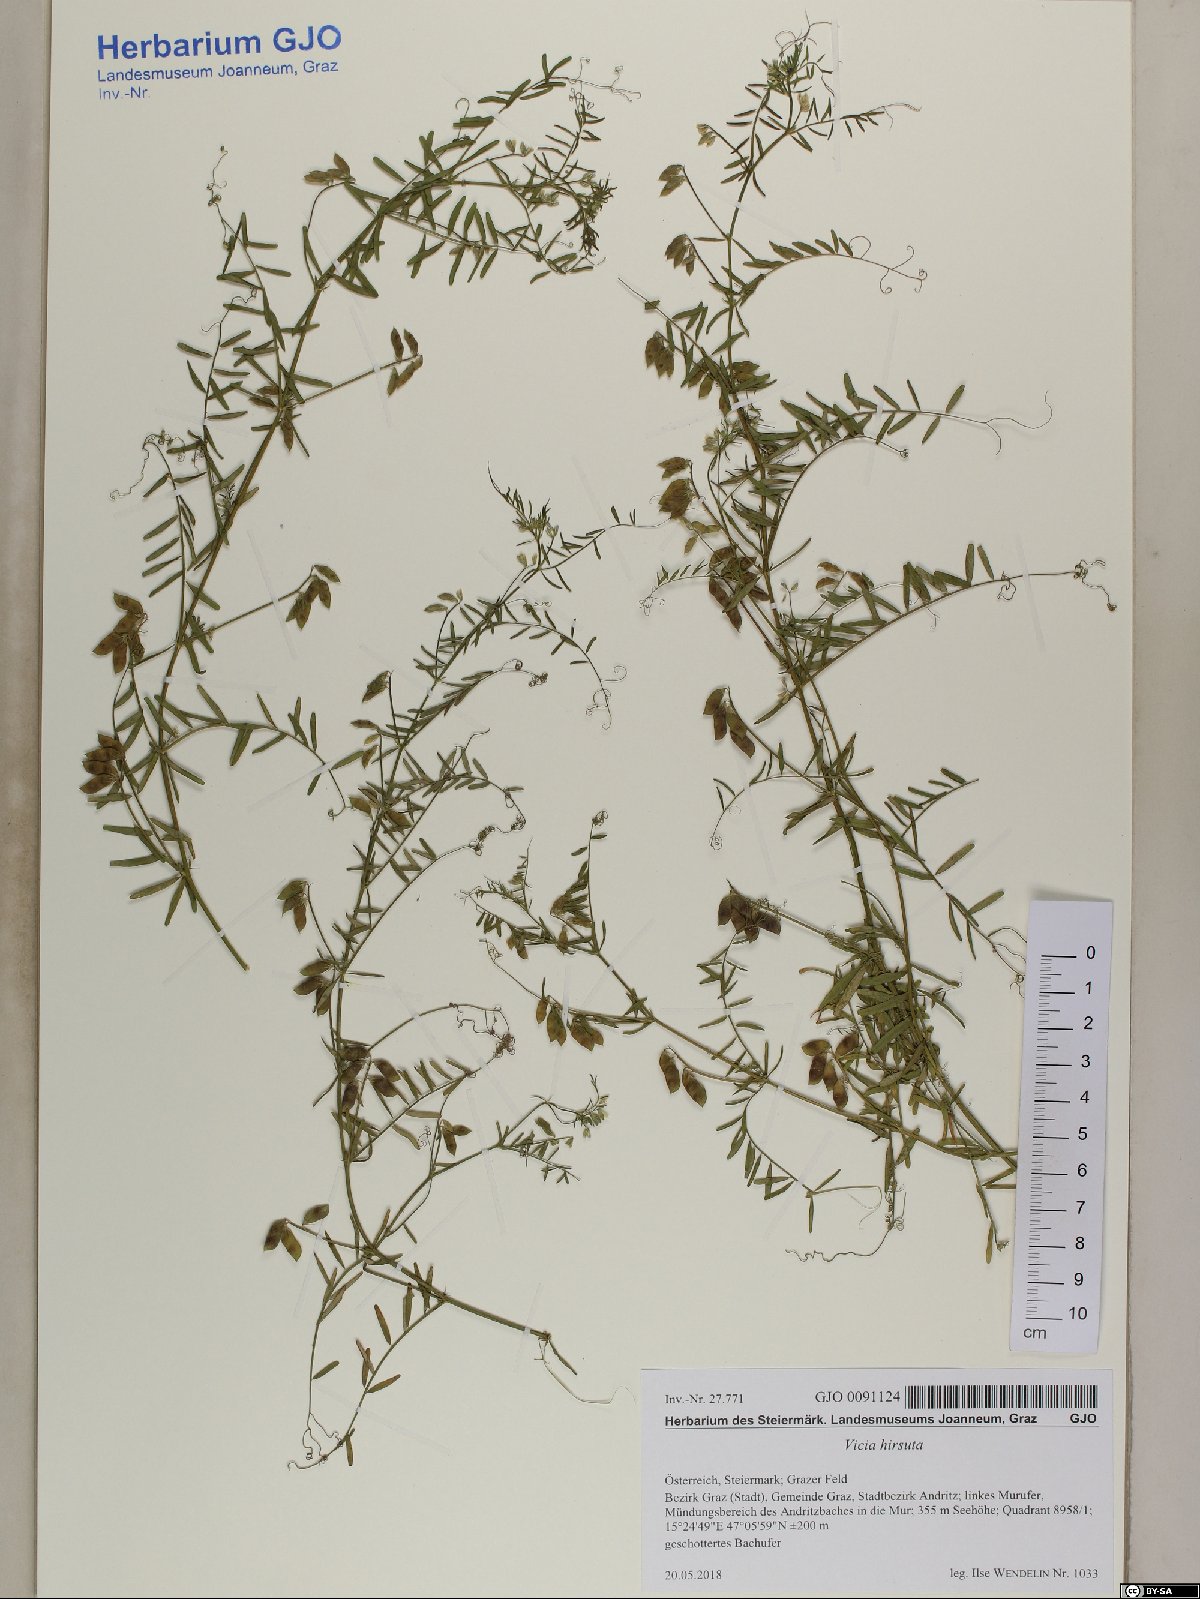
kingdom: Plantae
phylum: Tracheophyta
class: Magnoliopsida
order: Fabales
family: Fabaceae
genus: Vicia
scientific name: Vicia hirsuta
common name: Tiny vetch
